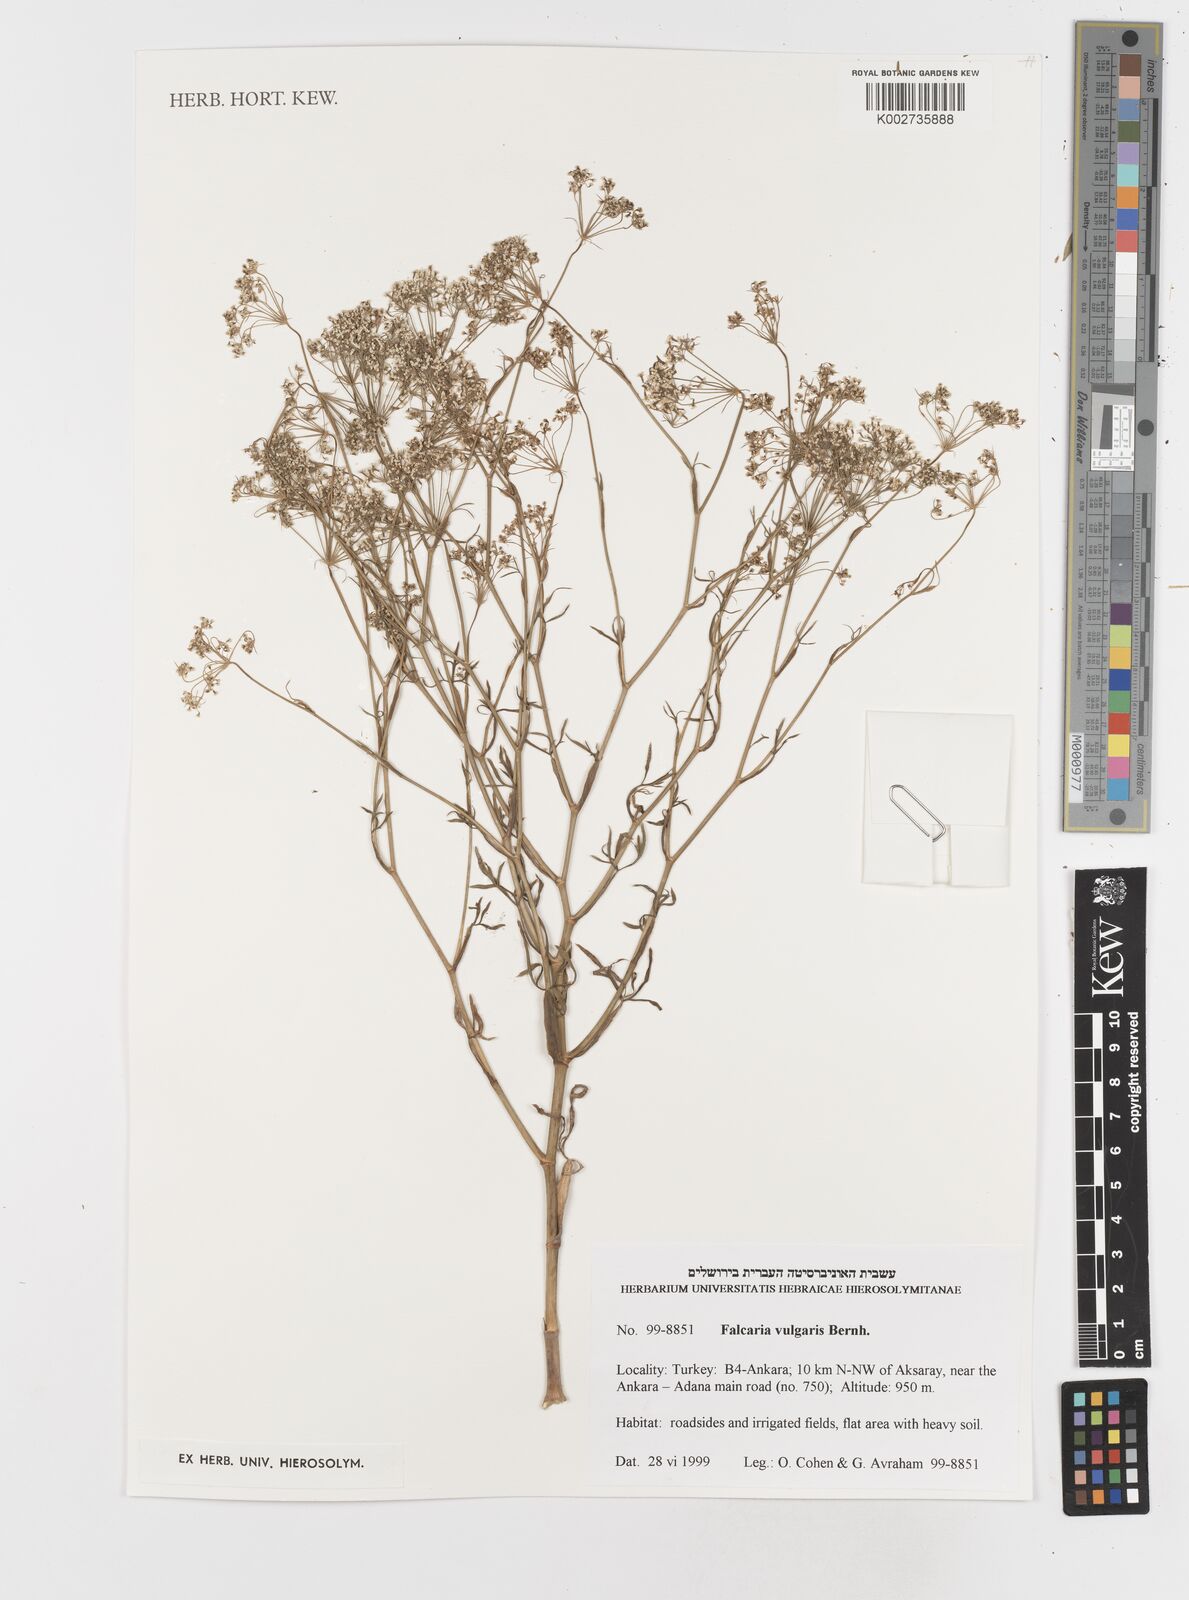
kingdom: Plantae
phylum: Tracheophyta
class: Magnoliopsida
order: Apiales
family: Apiaceae
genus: Falcaria
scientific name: Falcaria vulgaris
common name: Longleaf
